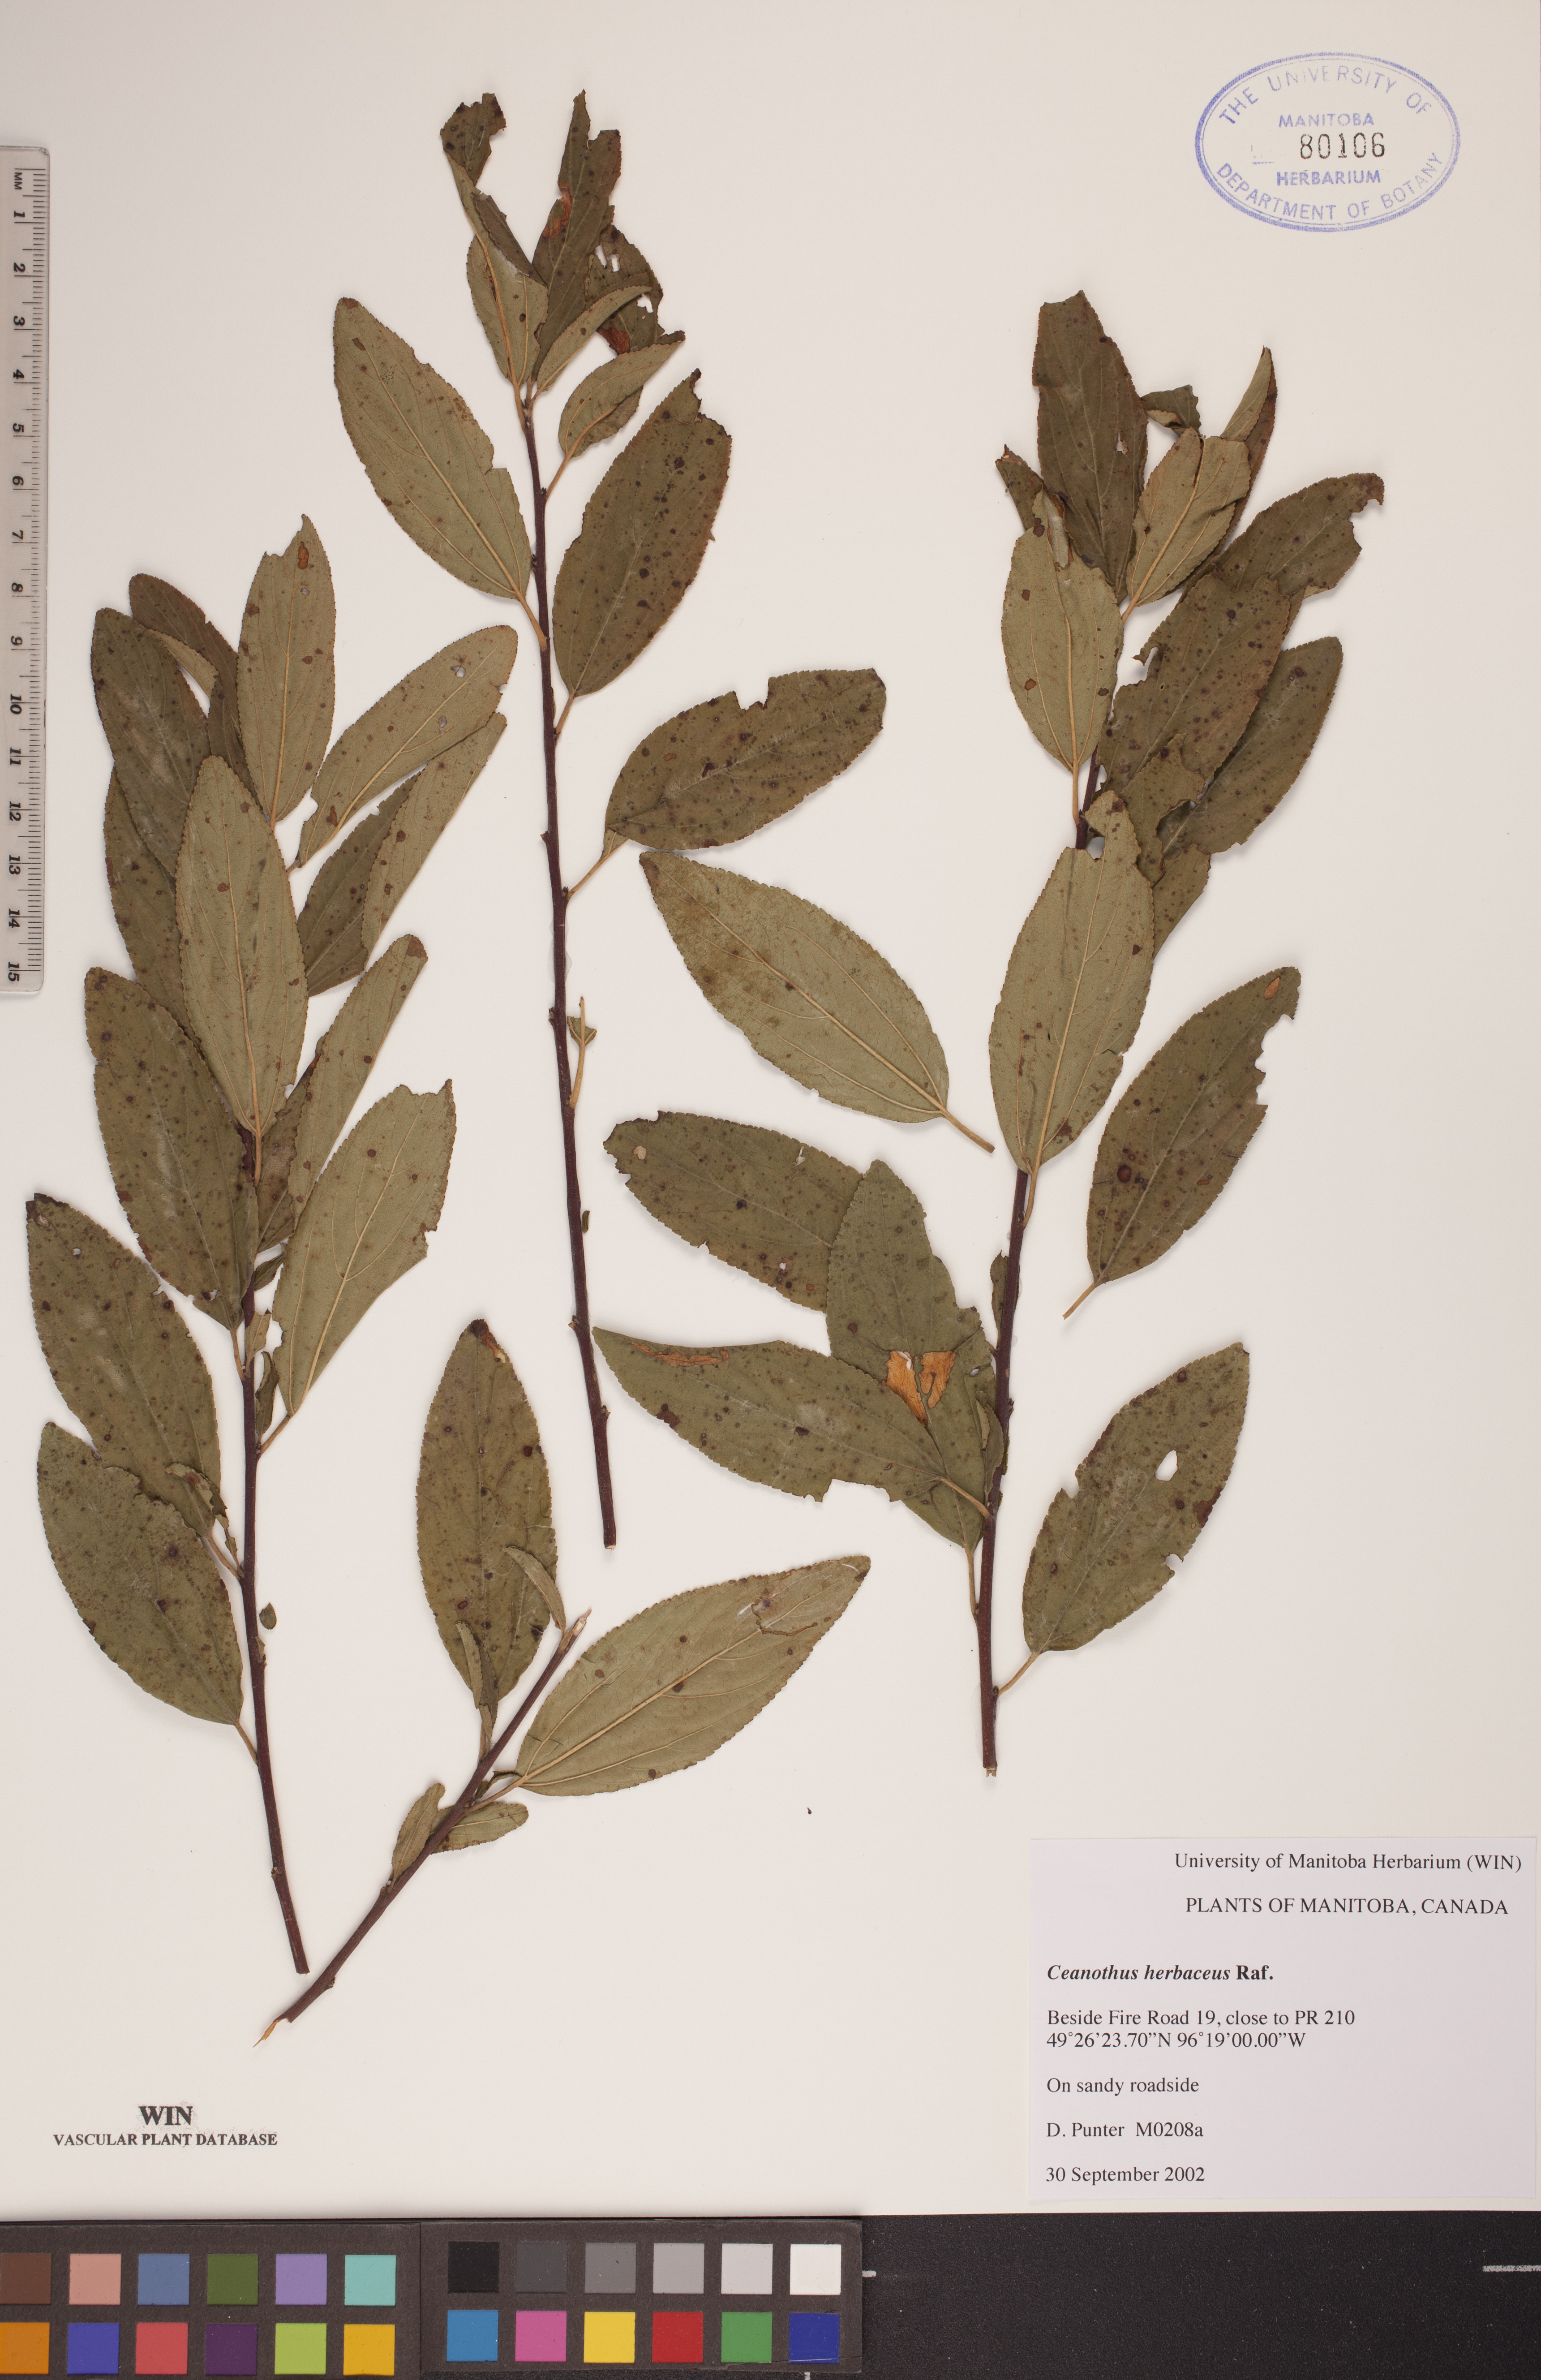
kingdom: Plantae
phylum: Tracheophyta
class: Magnoliopsida
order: Rosales
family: Rhamnaceae
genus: Ceanothus
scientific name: Ceanothus herbaceus
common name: Inland ceanothus
